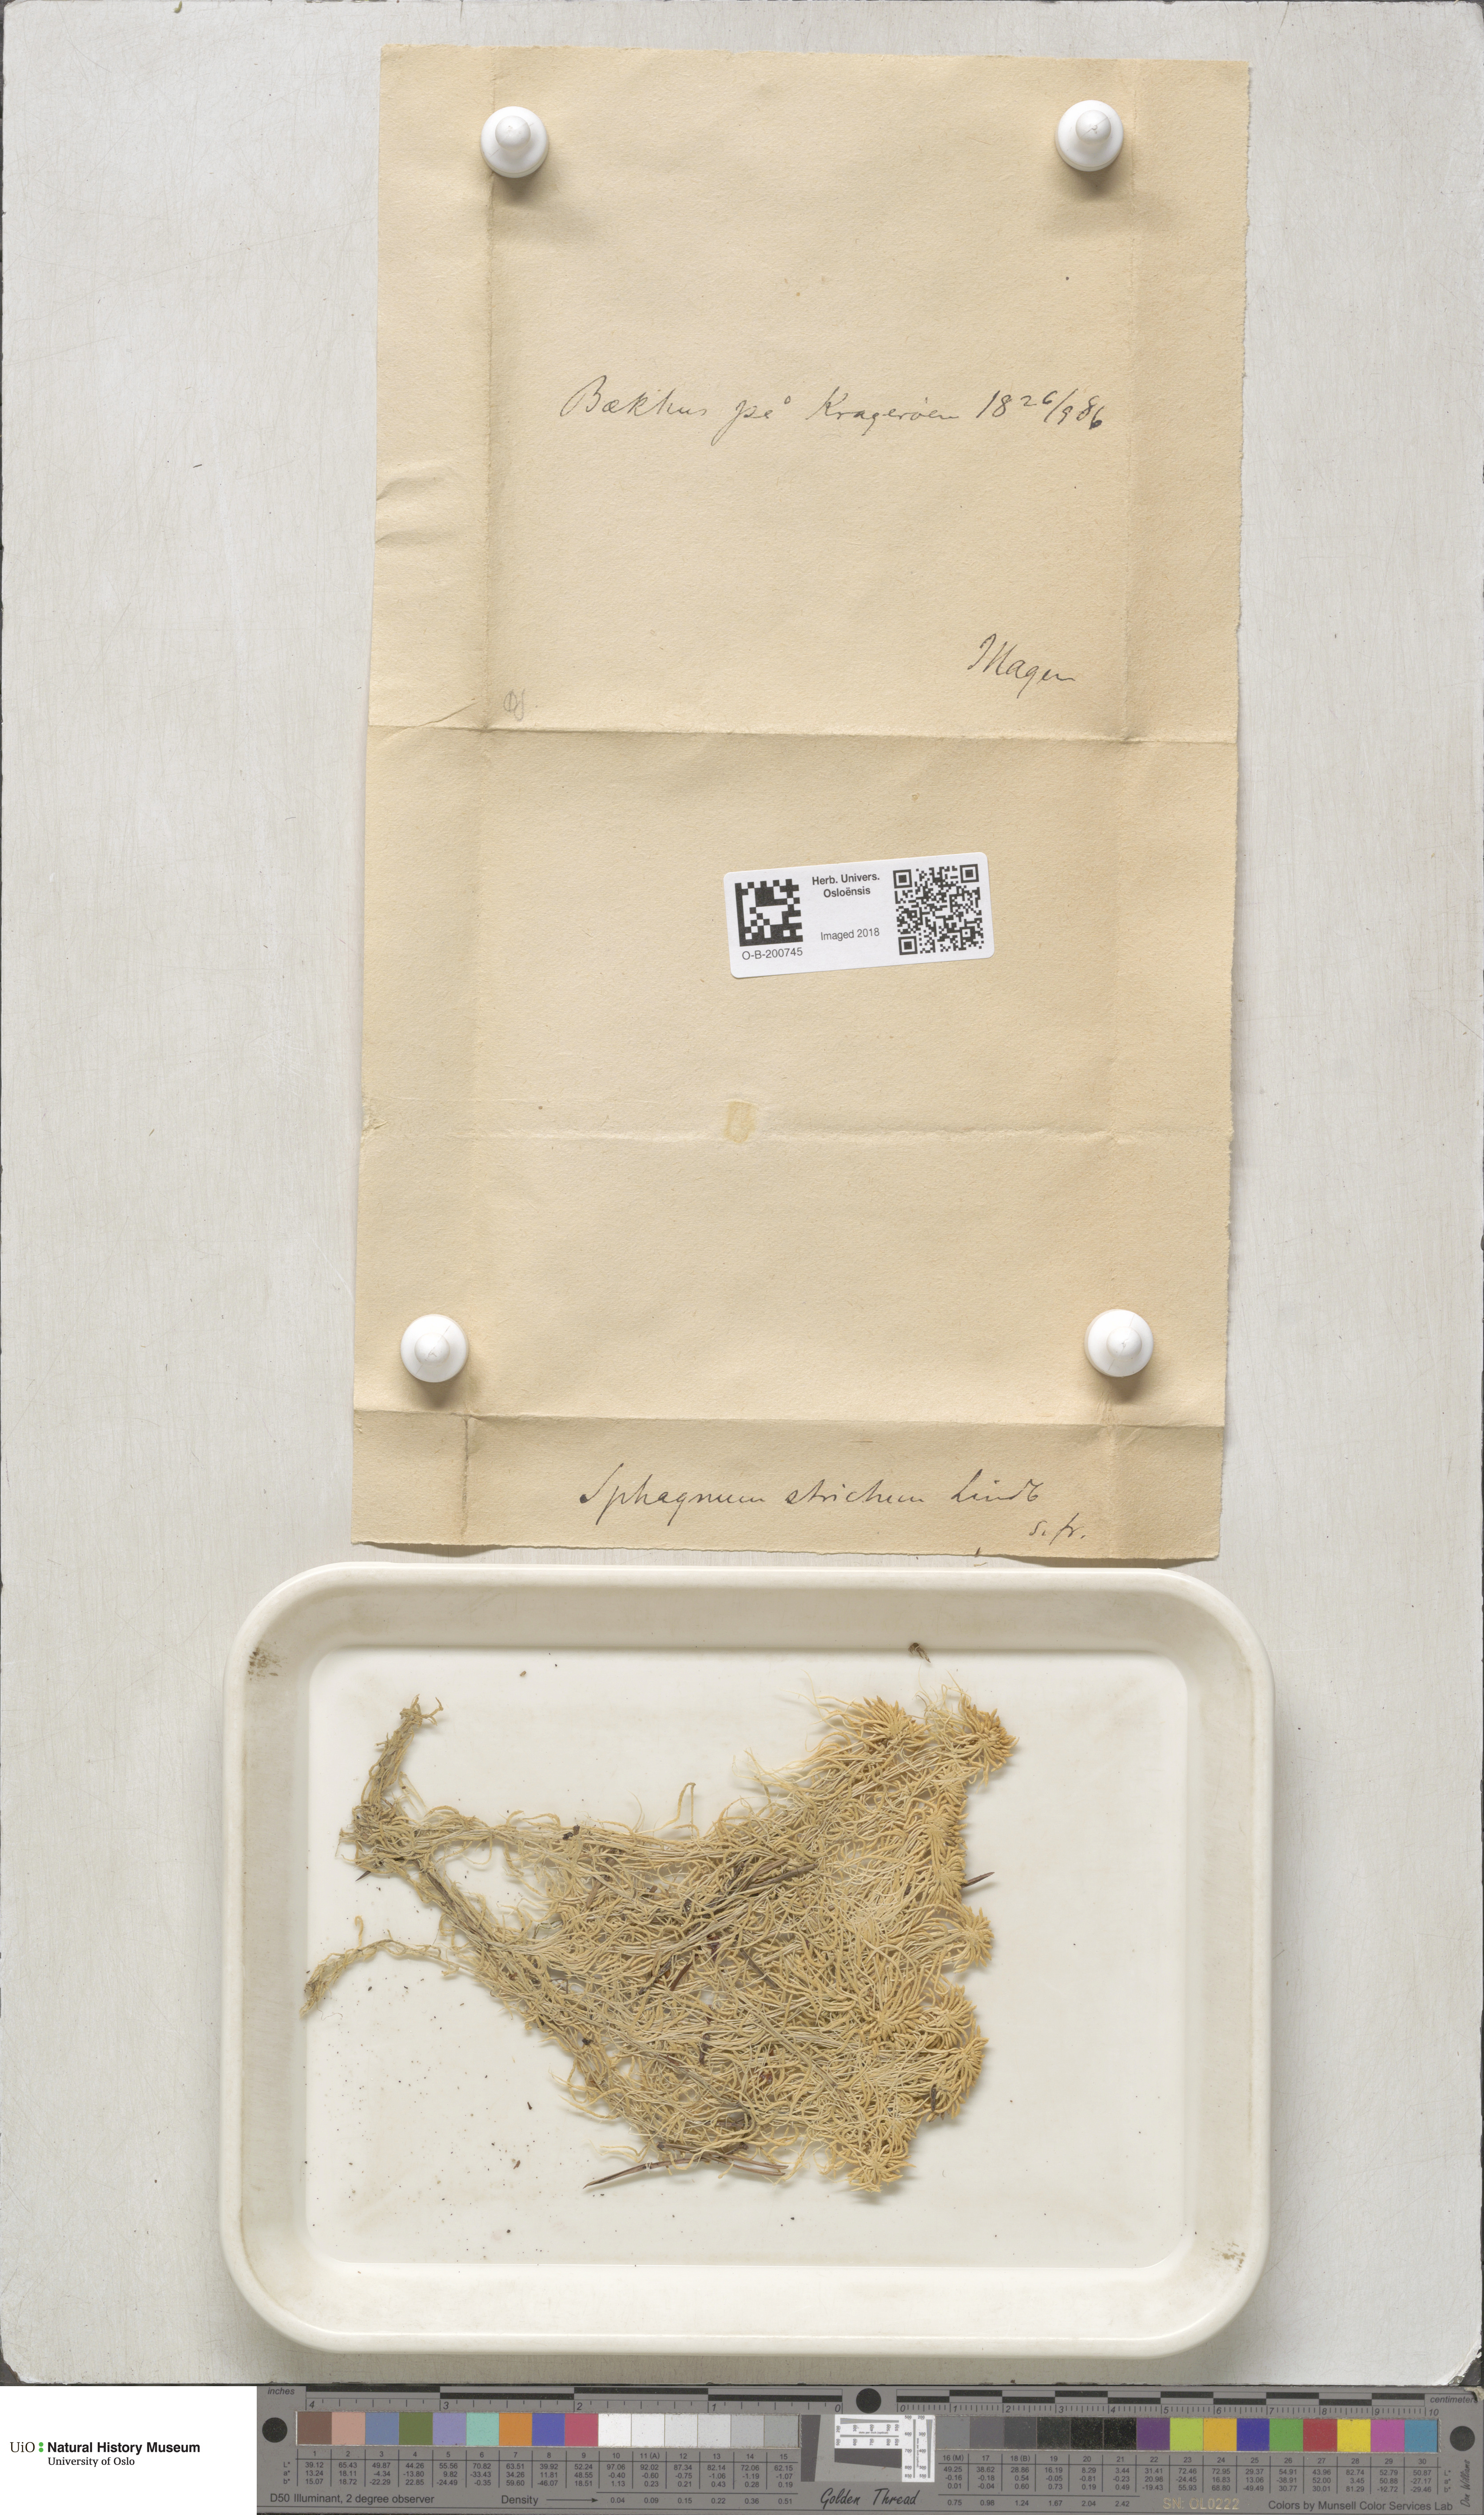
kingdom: Plantae
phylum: Bryophyta
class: Sphagnopsida
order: Sphagnales
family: Sphagnaceae
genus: Sphagnum
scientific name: Sphagnum girgensohnii
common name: Girgensohn's peat moss
